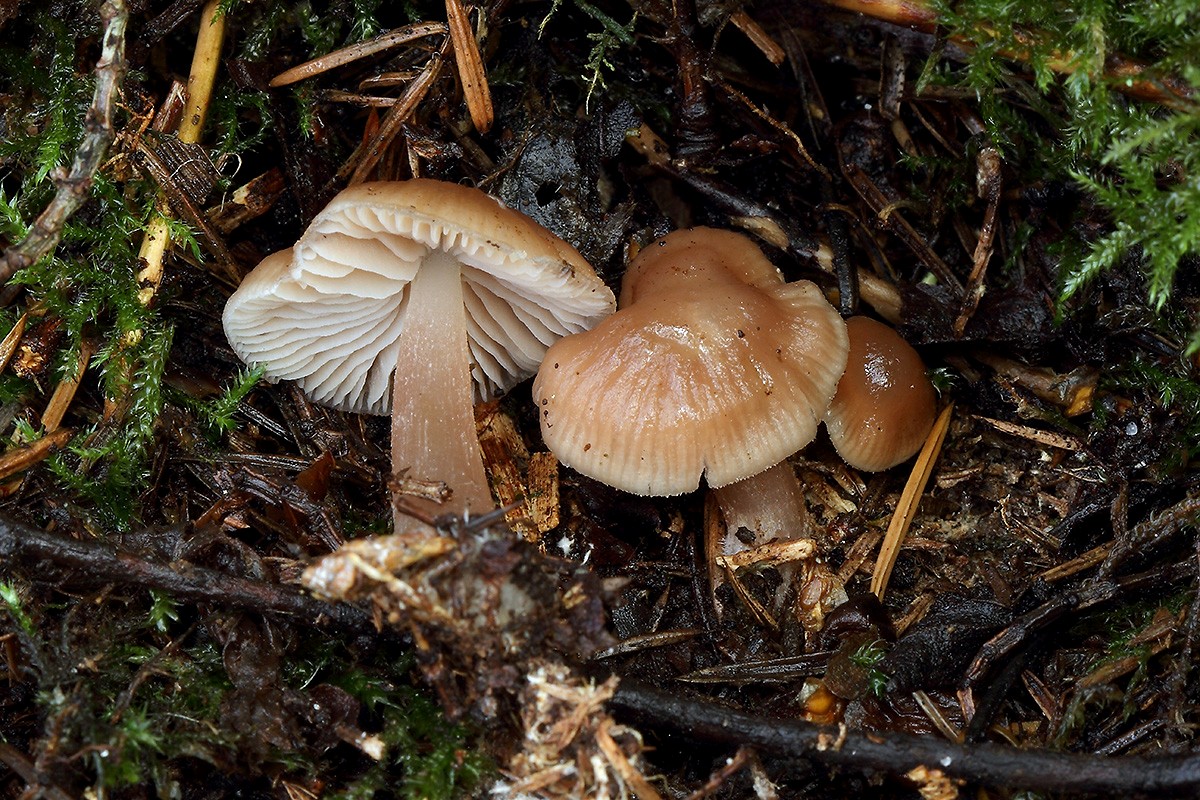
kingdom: Fungi
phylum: Basidiomycota
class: Agaricomycetes
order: Agaricales
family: Mycenaceae
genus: Mycena
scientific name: Mycena pura
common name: Lilac bonnet
